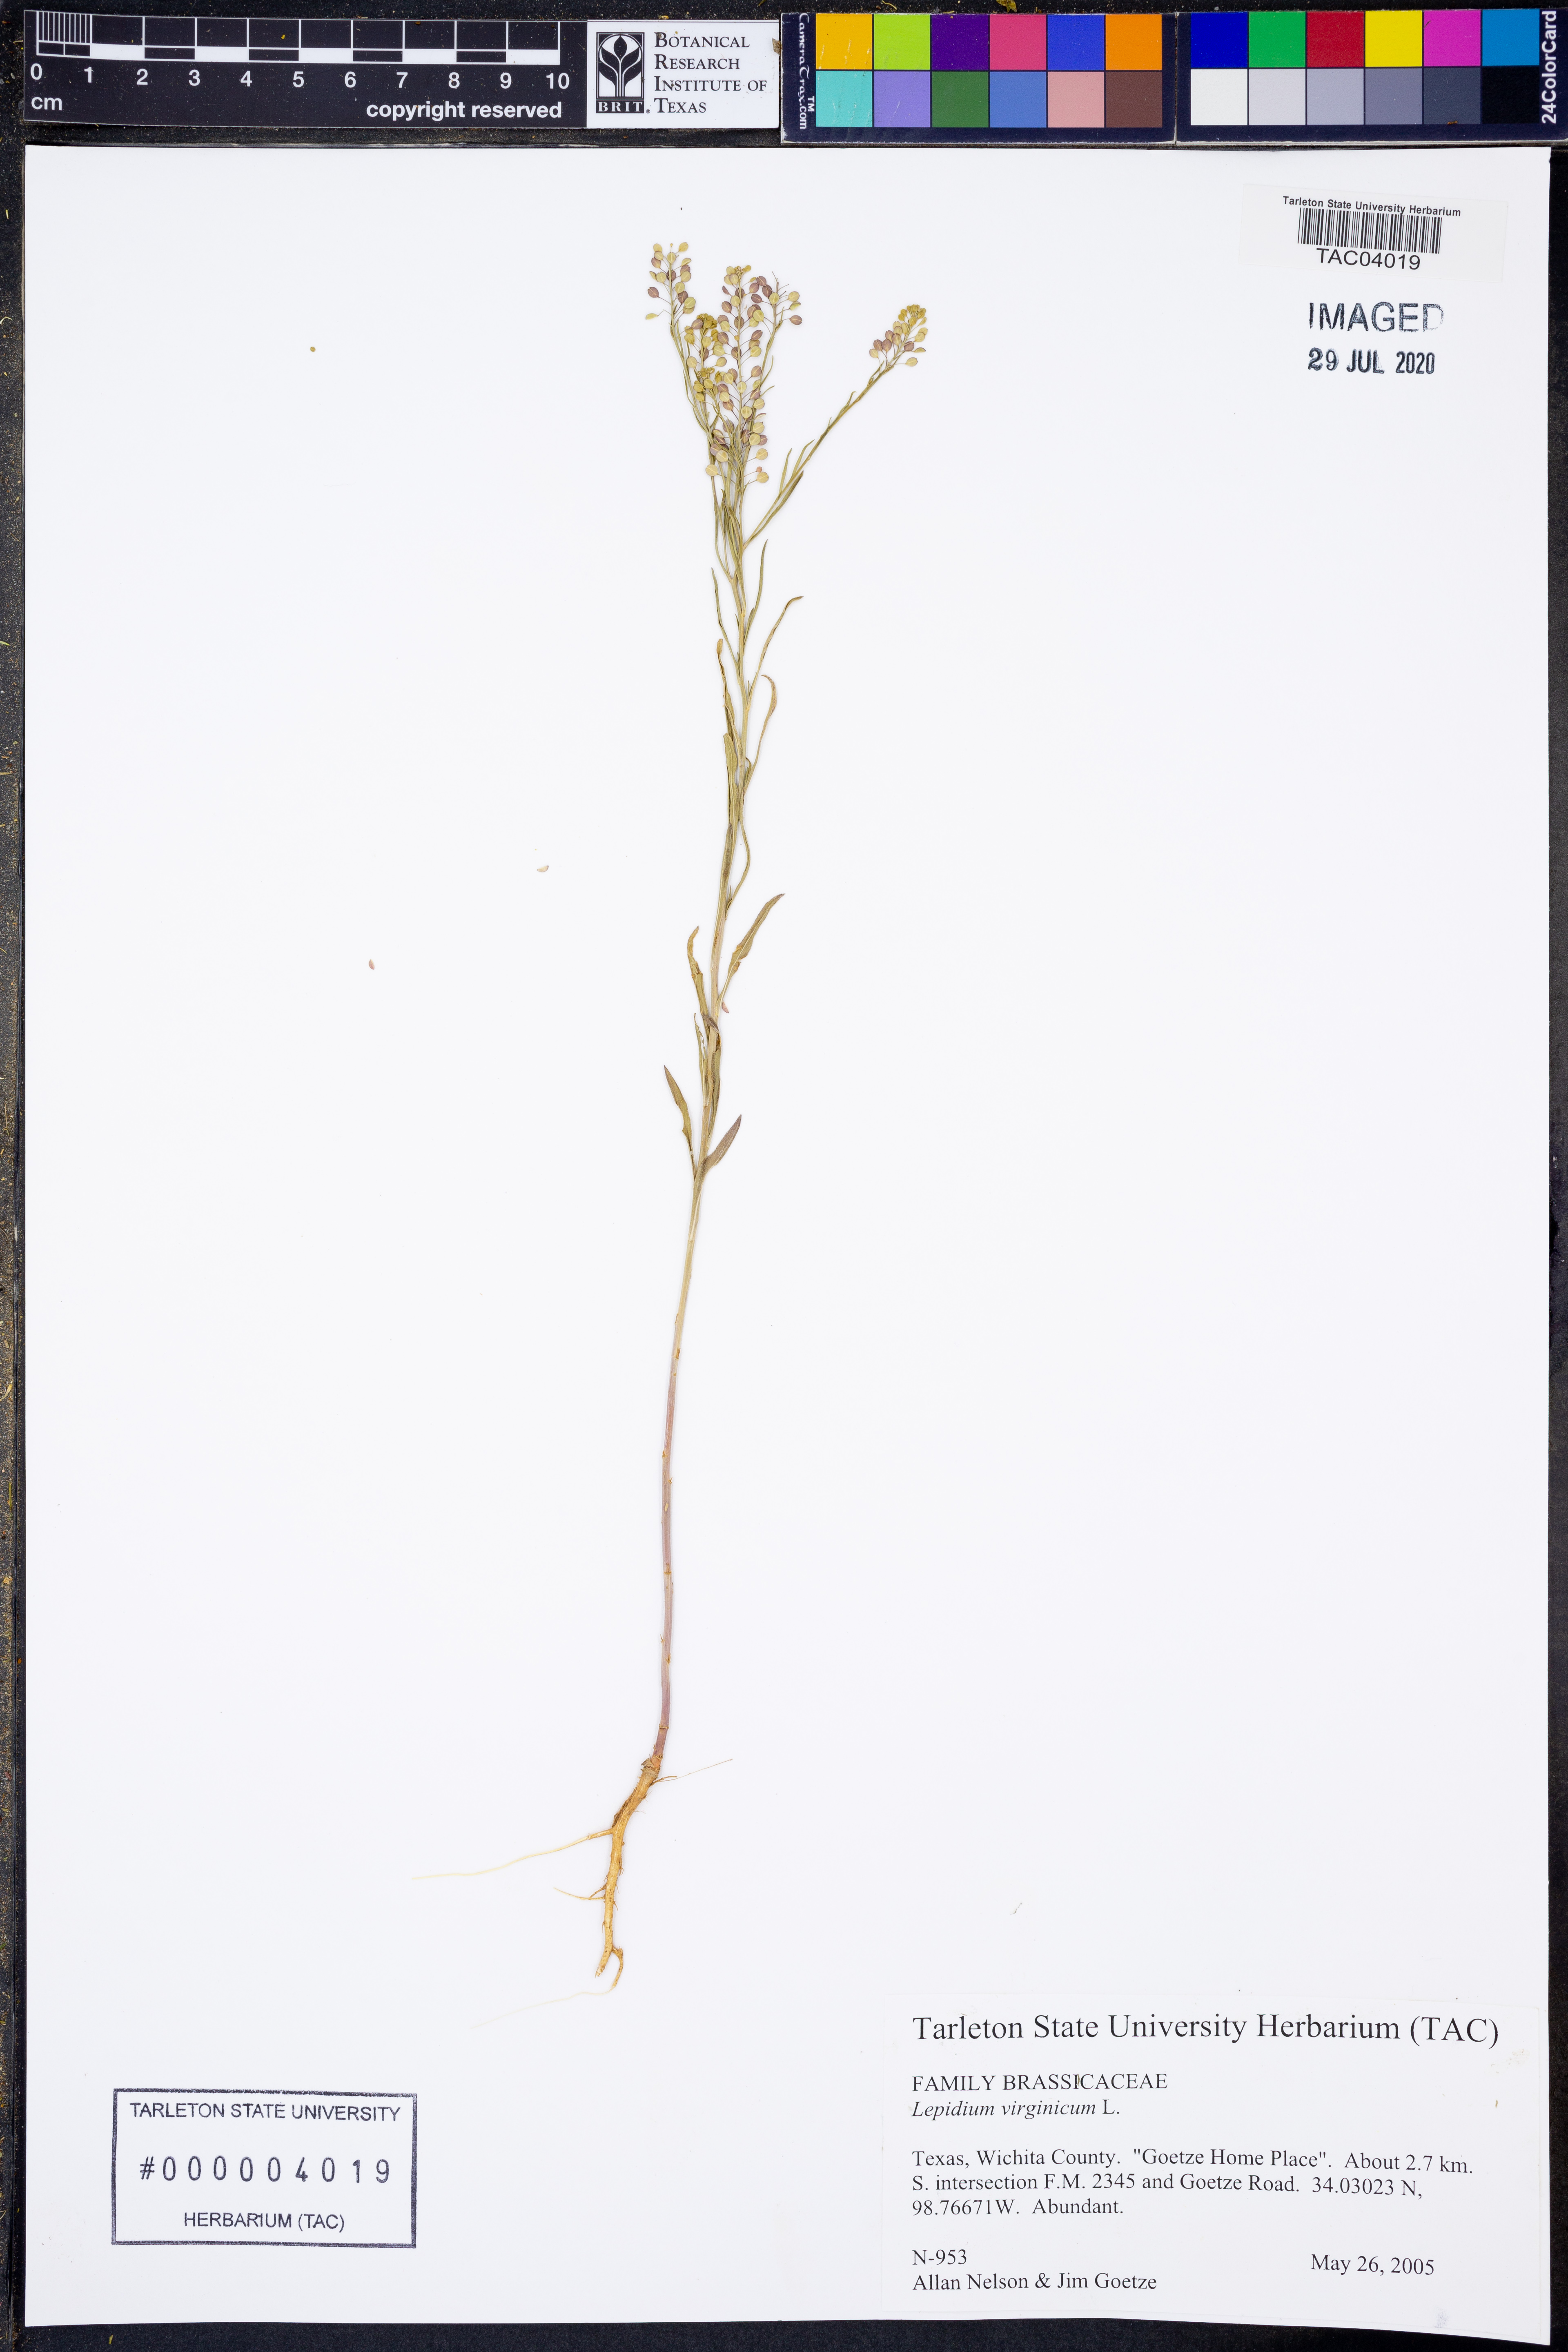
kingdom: Plantae
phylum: Tracheophyta
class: Magnoliopsida
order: Brassicales
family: Brassicaceae
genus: Lepidium
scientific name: Lepidium virginicum
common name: Least pepperwort
